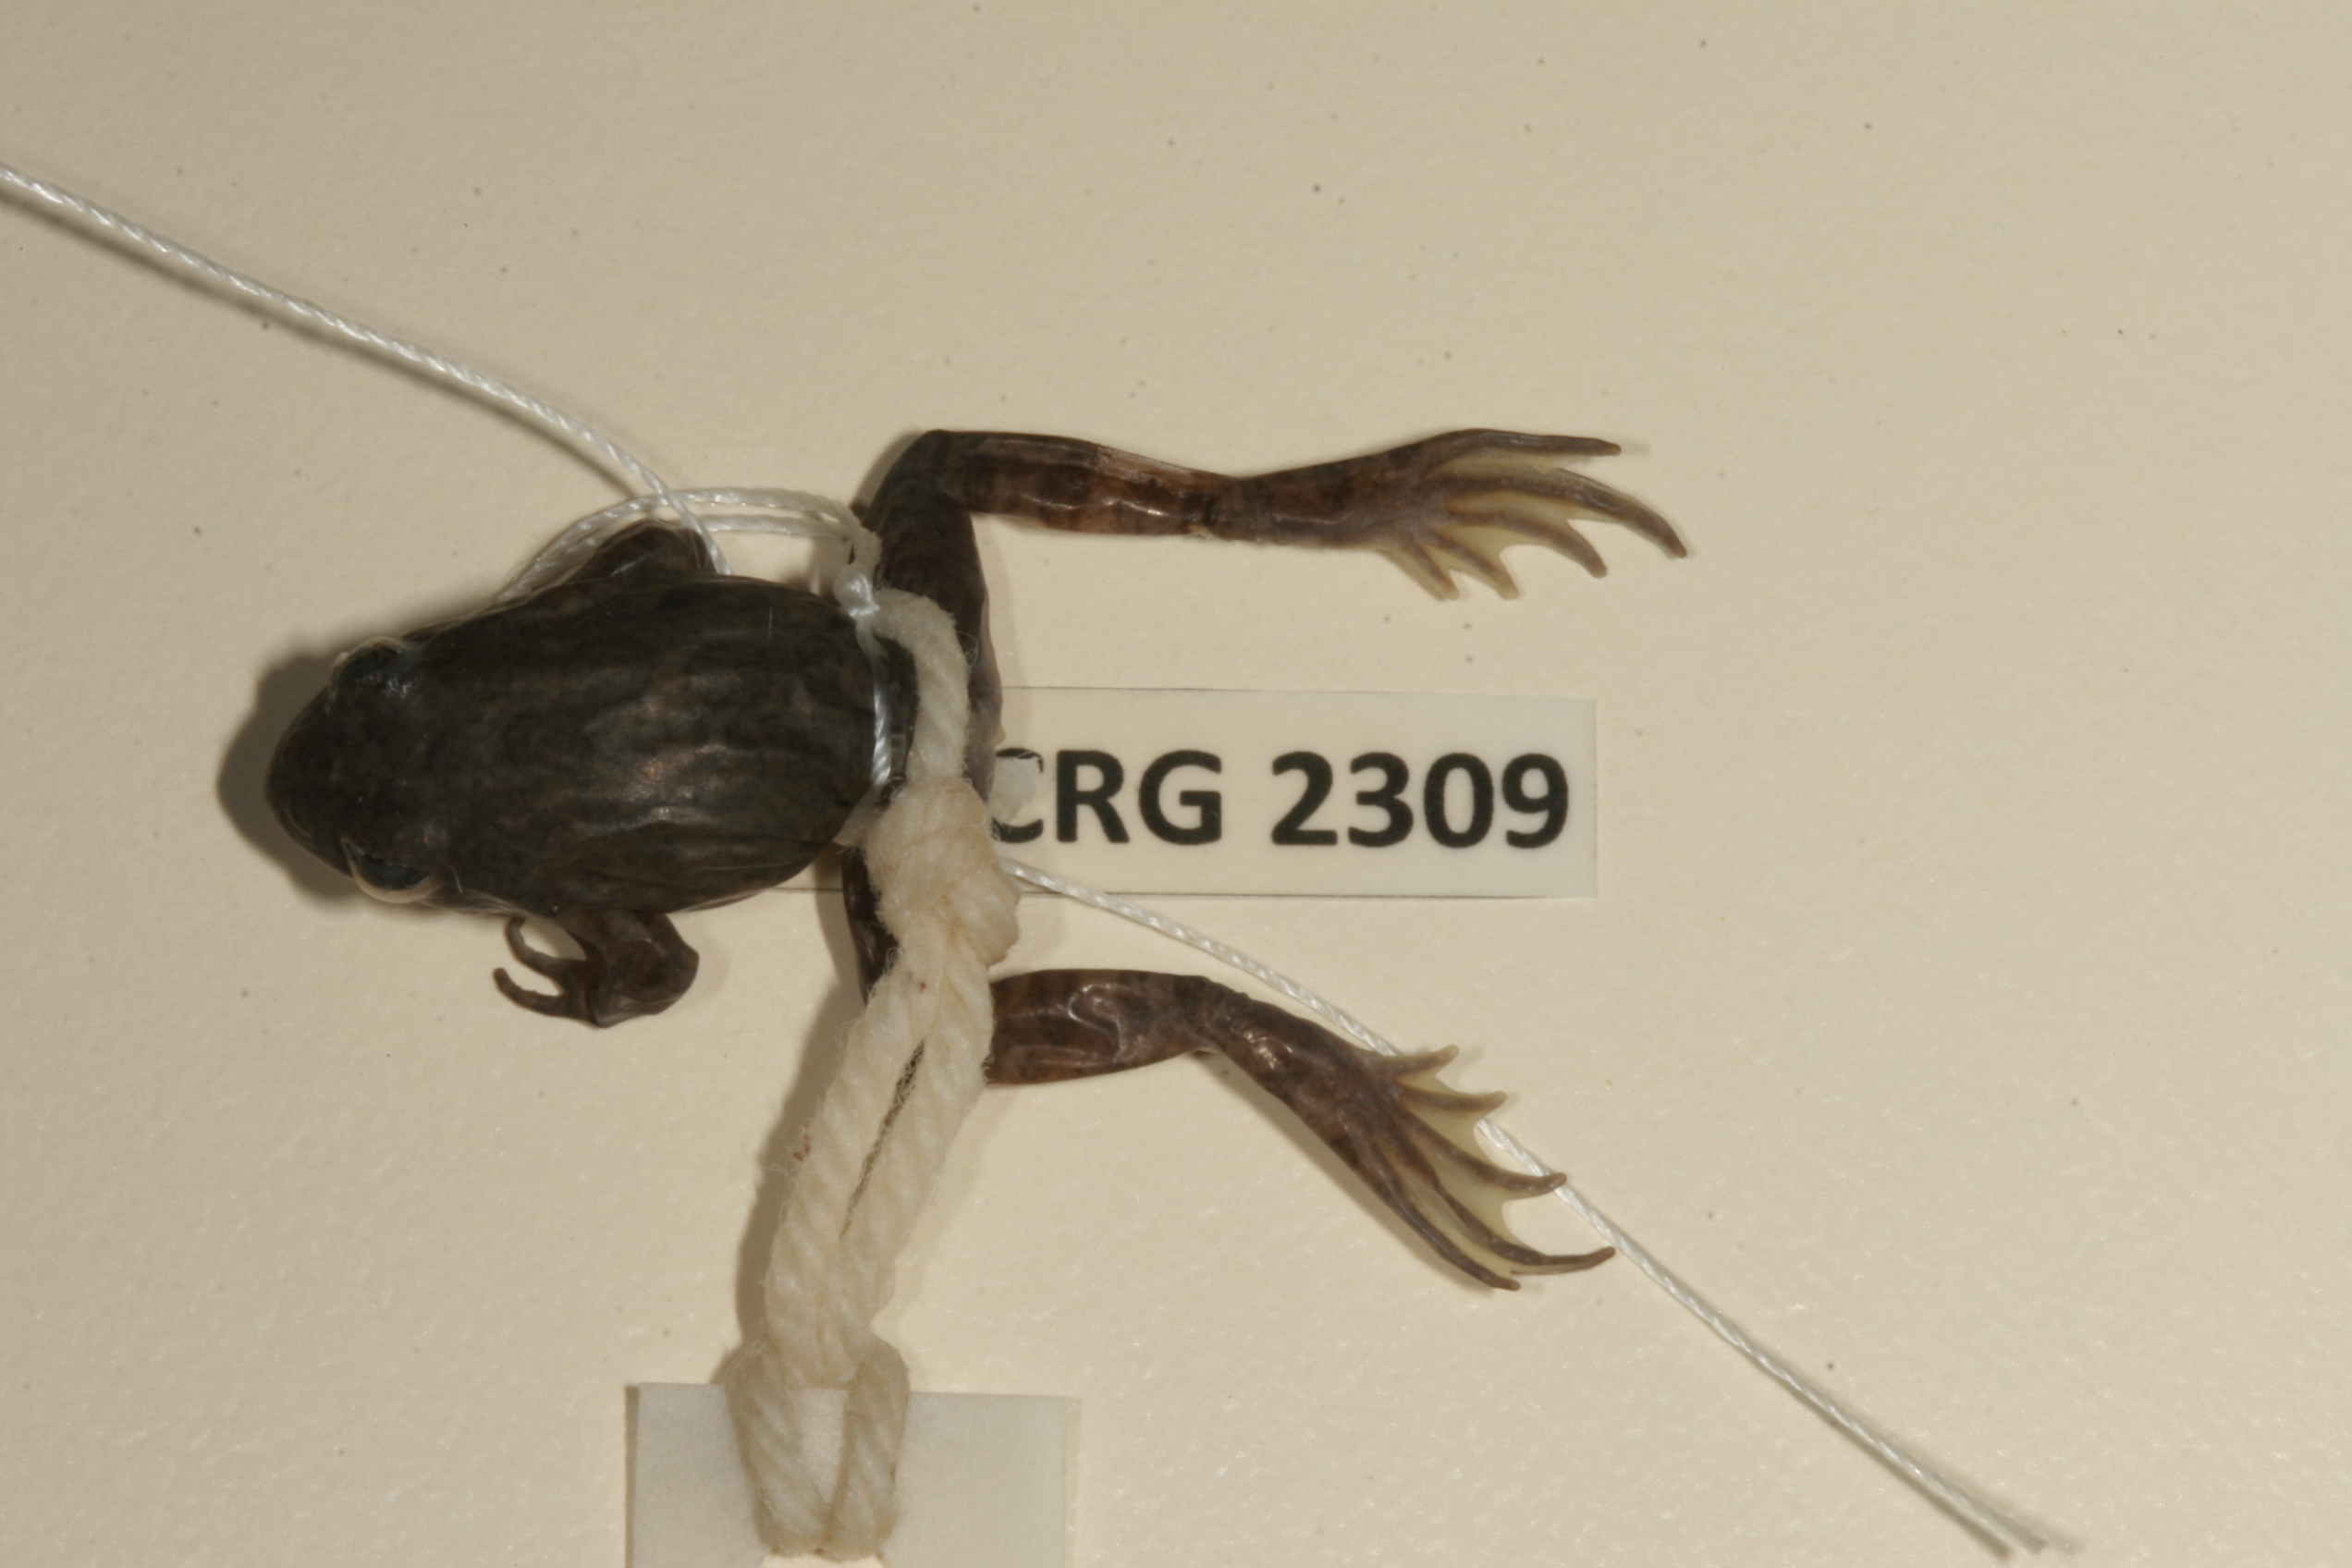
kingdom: Animalia
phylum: Chordata
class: Amphibia
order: Anura
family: Pyxicephalidae
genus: Amietia
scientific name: Amietia vertebralis
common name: Drakensberg stream frog
